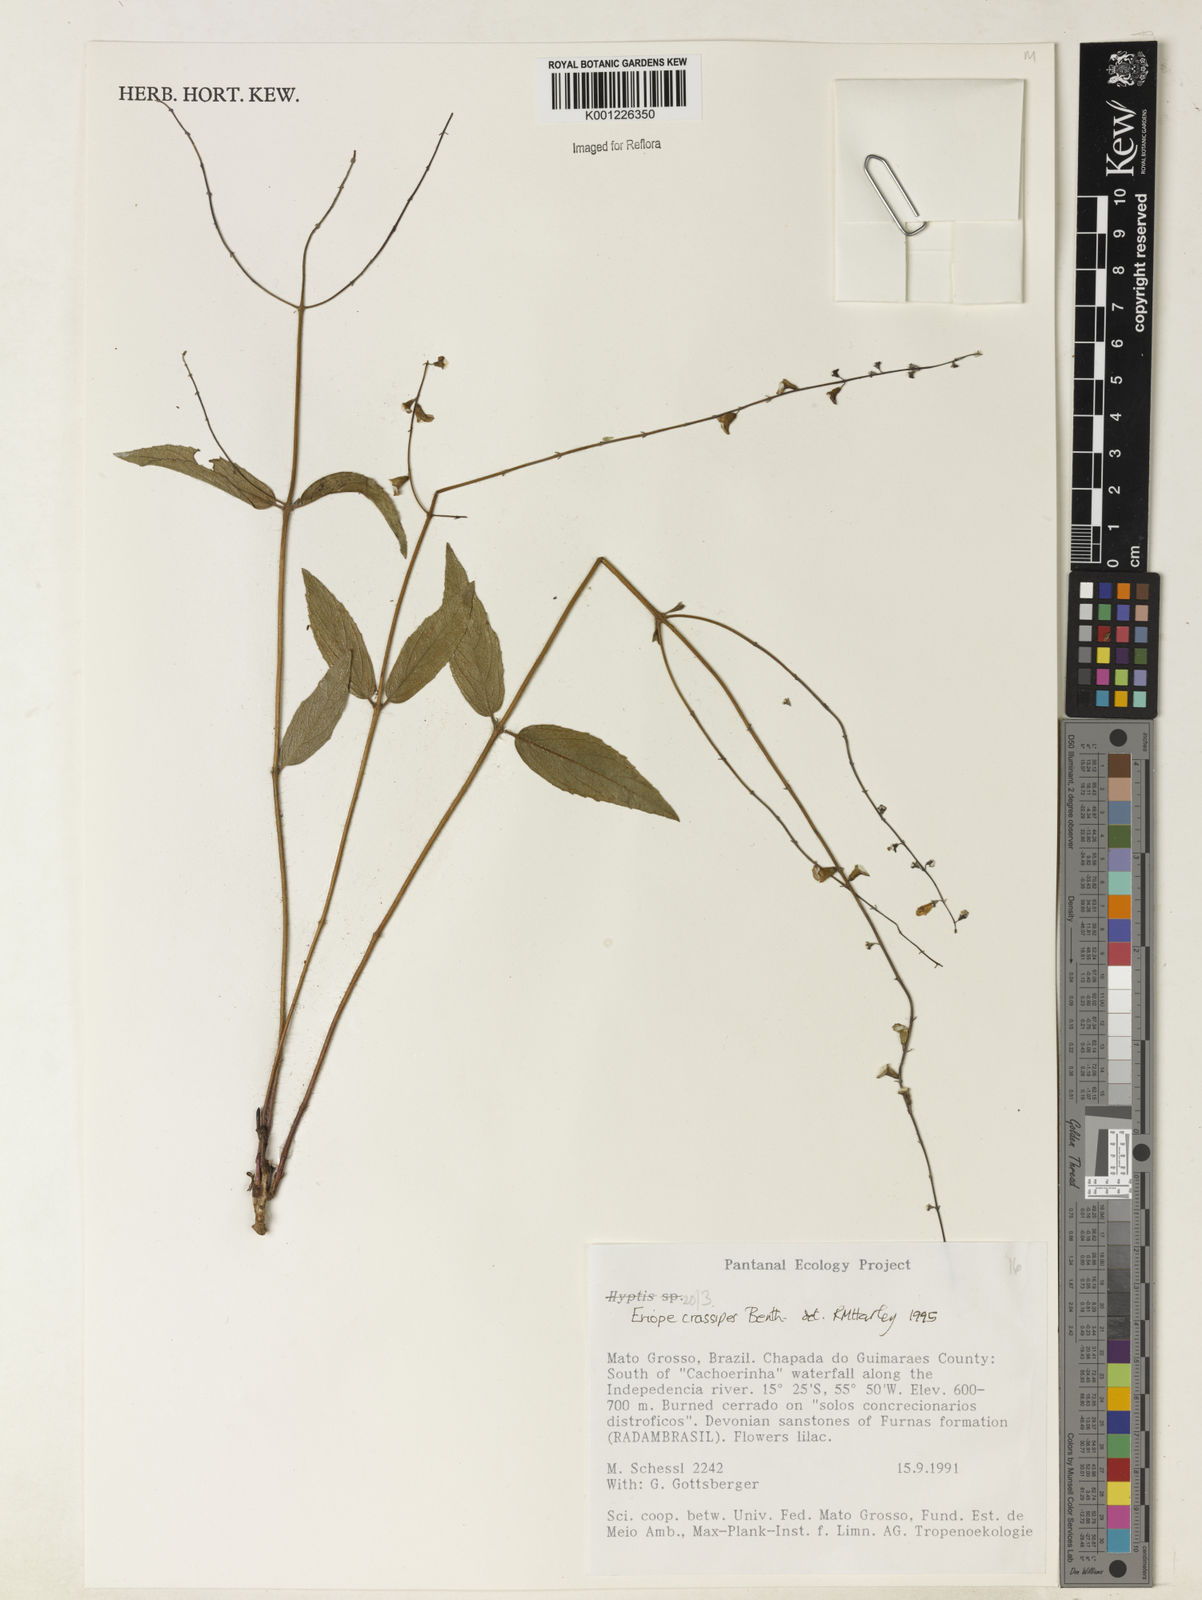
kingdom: Plantae
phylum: Tracheophyta
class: Magnoliopsida
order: Lamiales
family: Lamiaceae
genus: Eriope
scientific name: Eriope crassipes
